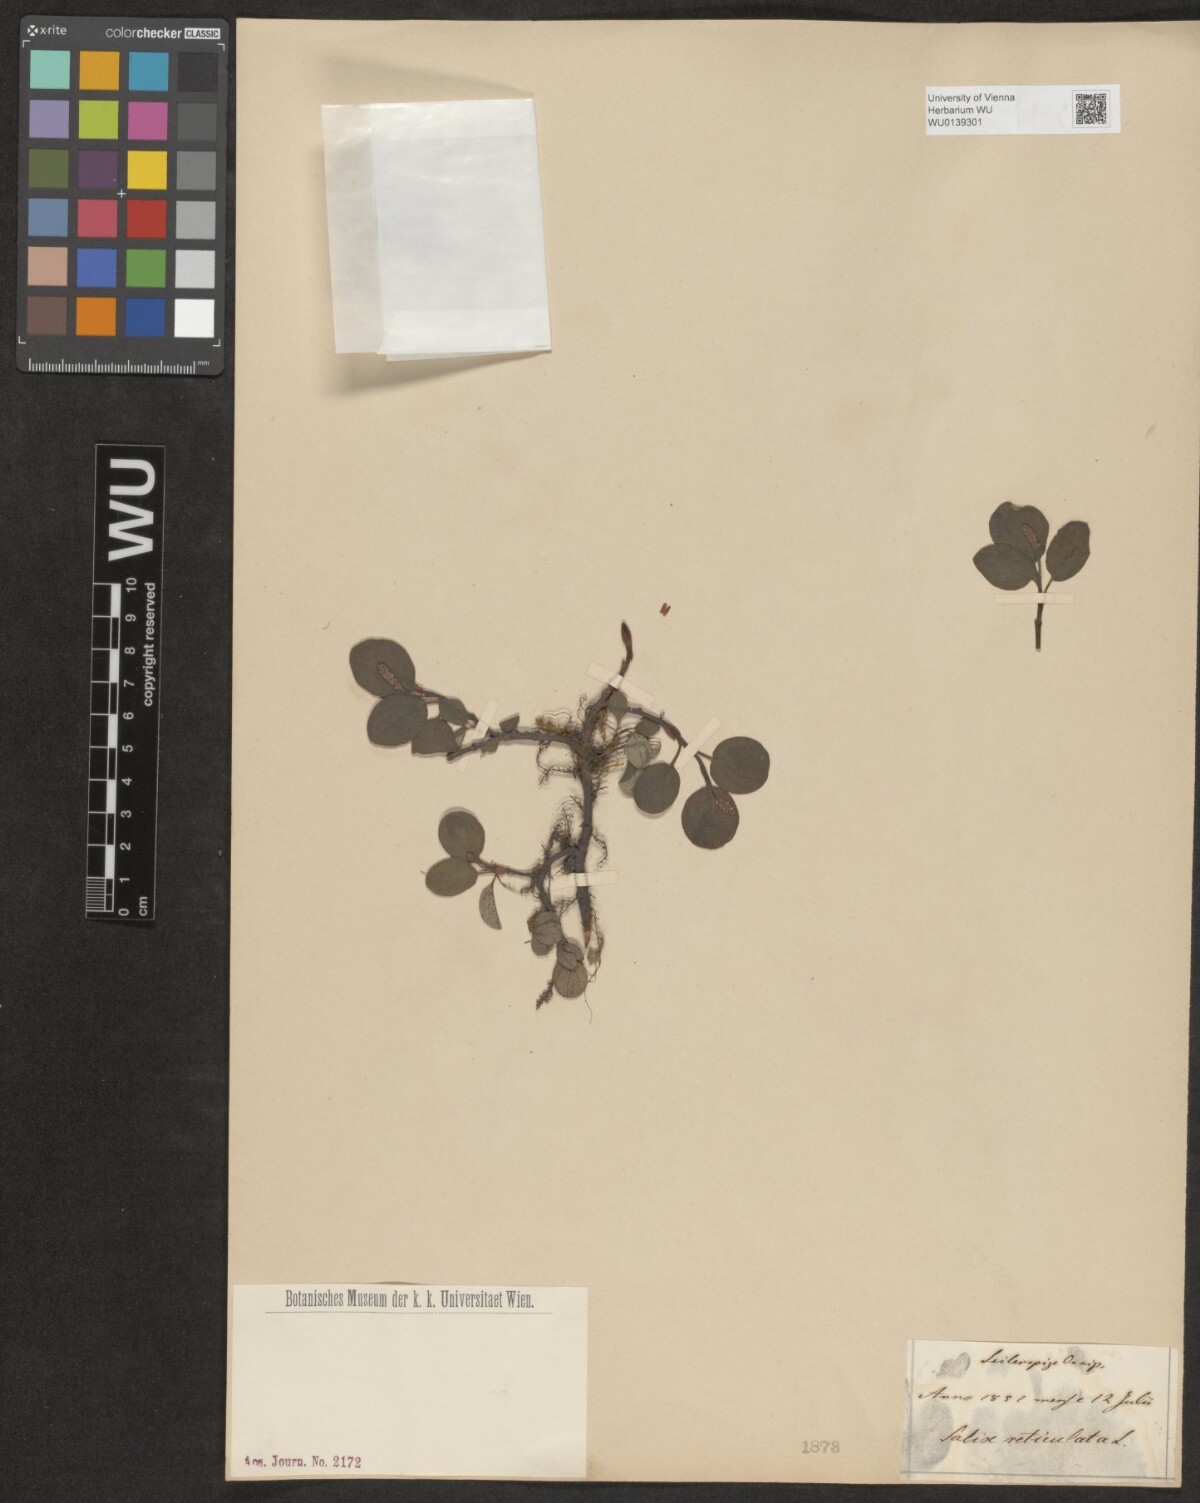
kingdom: Plantae
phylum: Tracheophyta
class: Magnoliopsida
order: Malpighiales
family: Salicaceae
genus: Salix
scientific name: Salix reticulata
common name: Net-leaved willow
